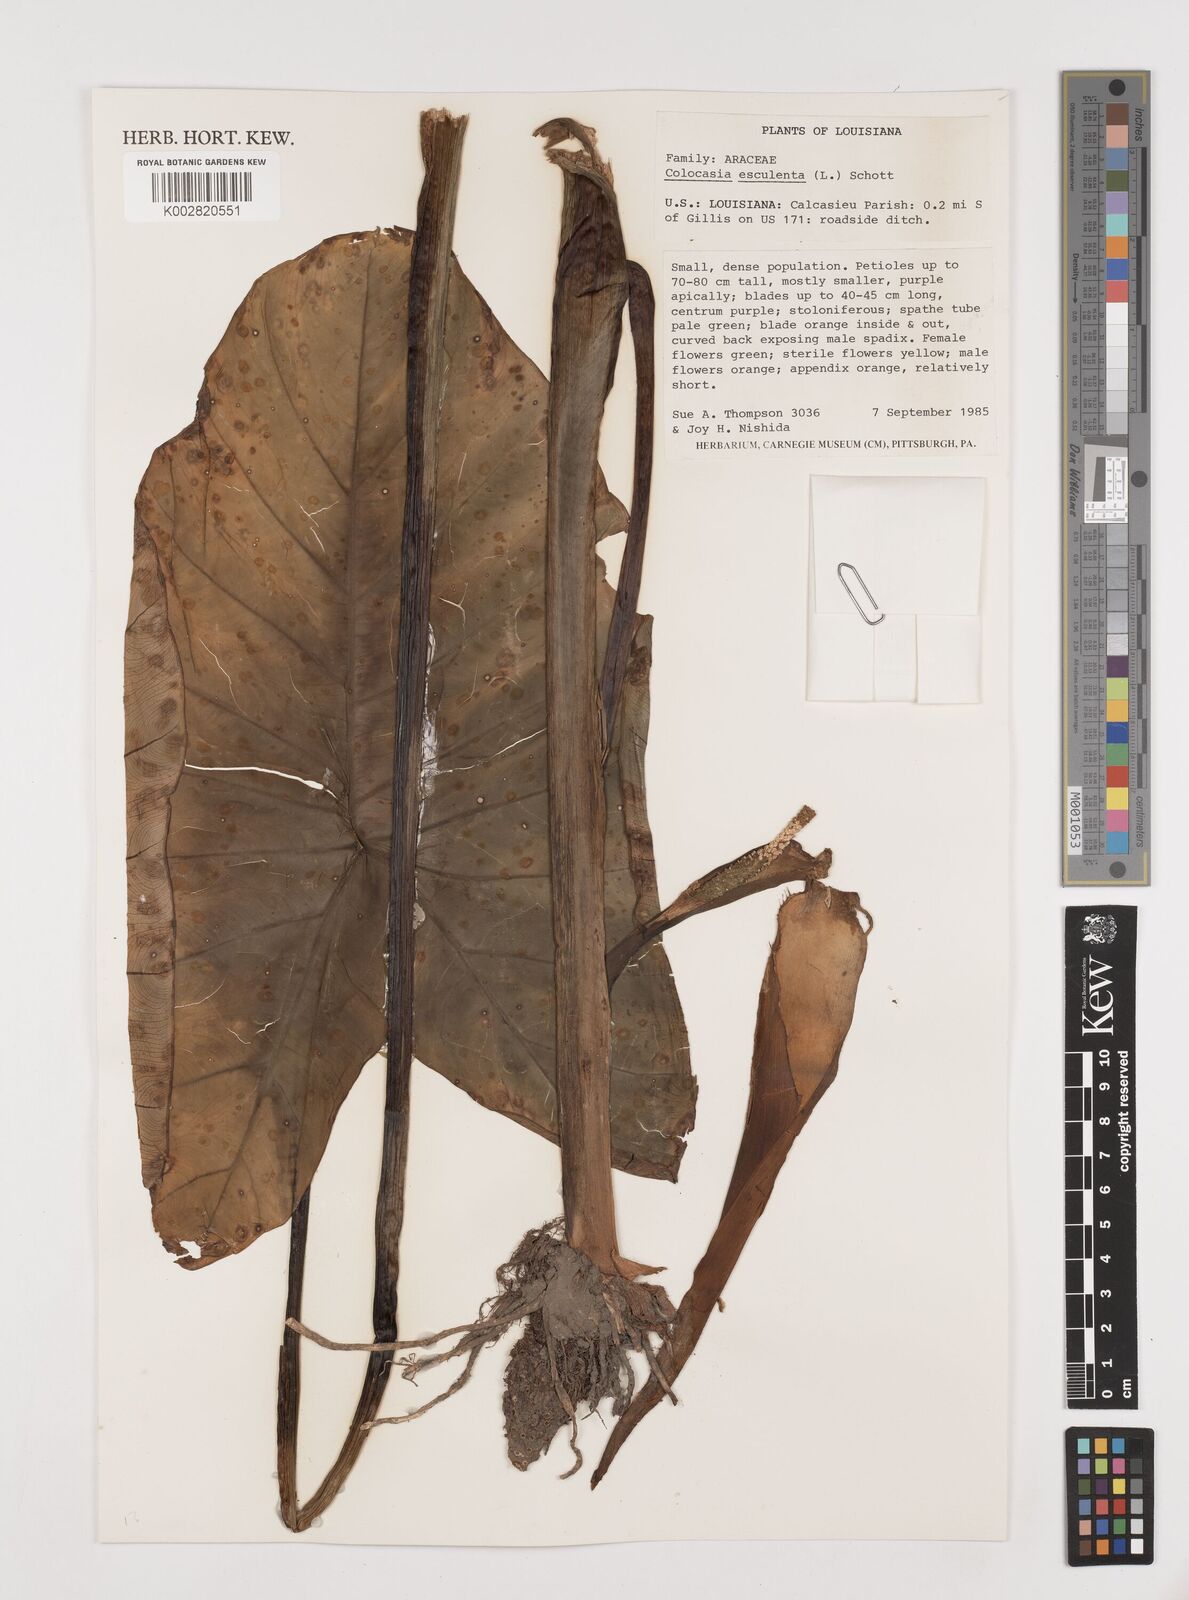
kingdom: Plantae
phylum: Tracheophyta
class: Liliopsida
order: Alismatales
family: Araceae
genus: Colocasia
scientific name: Colocasia esculenta
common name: Taro
